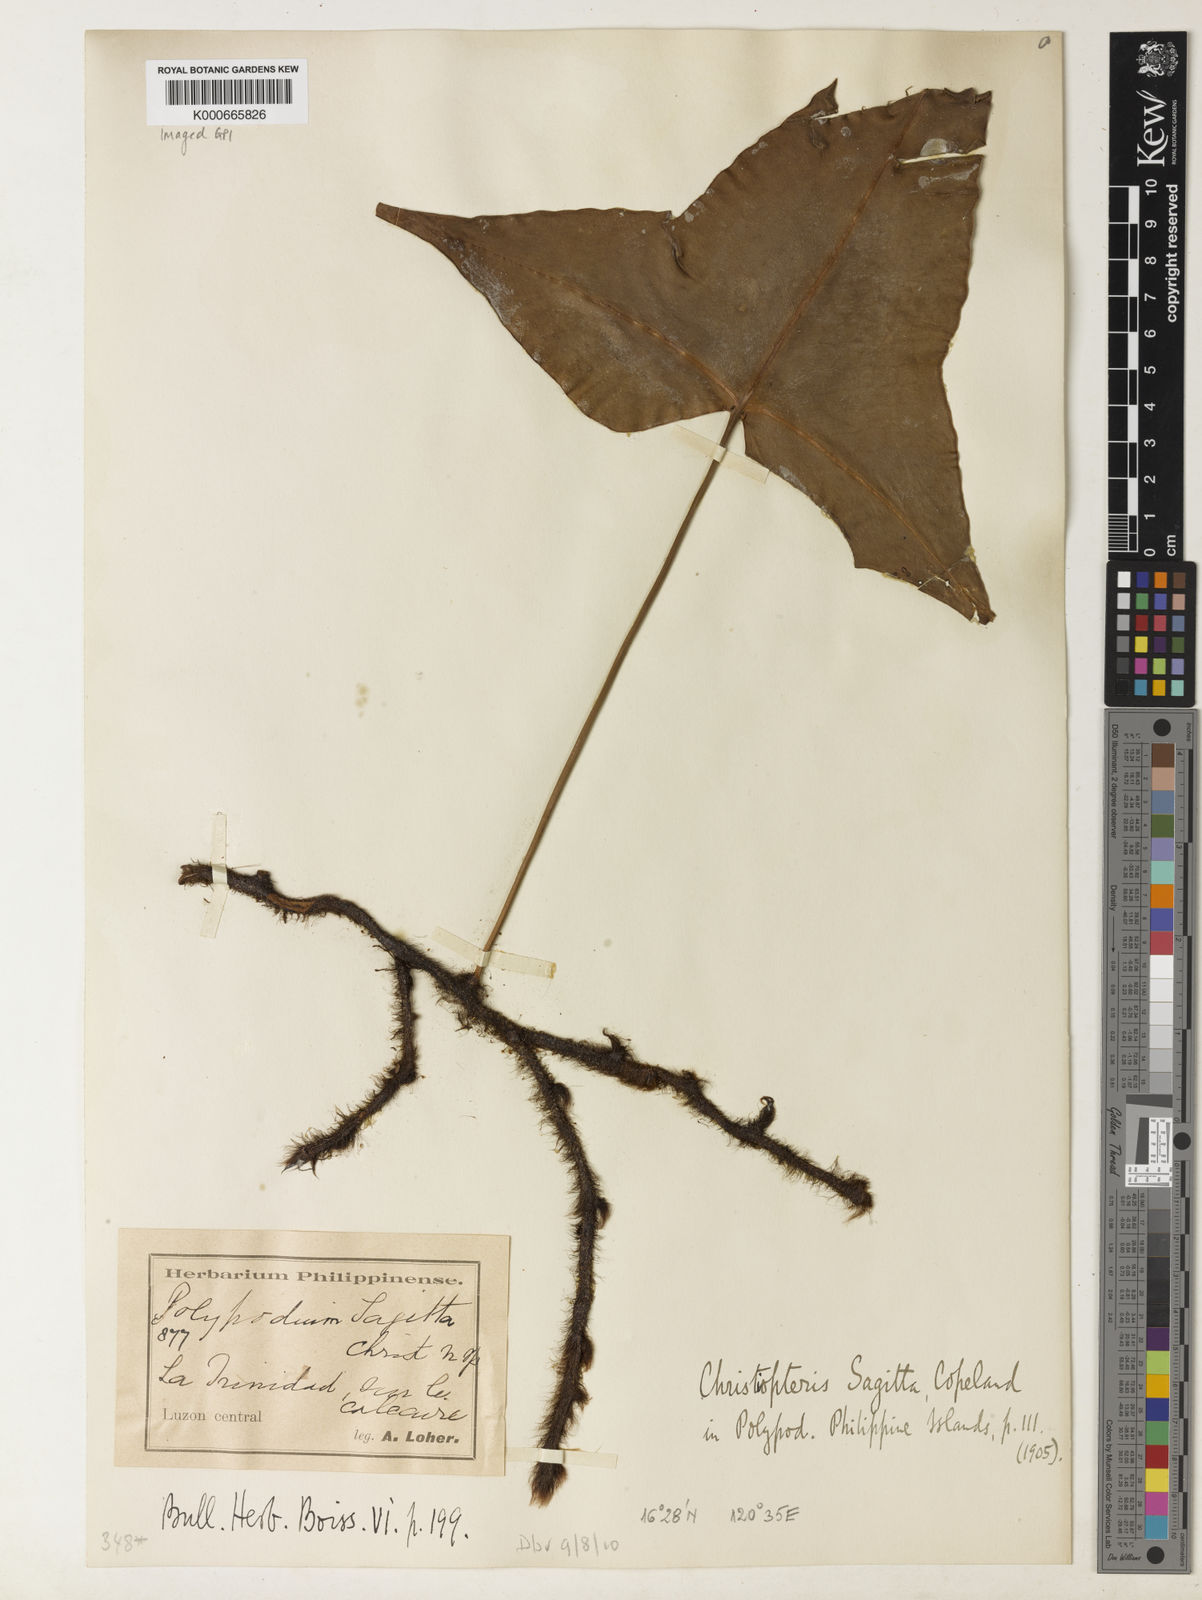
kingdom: Plantae
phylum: Tracheophyta
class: Polypodiopsida
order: Polypodiales
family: Polypodiaceae
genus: Christiopteris
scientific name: Christiopteris
